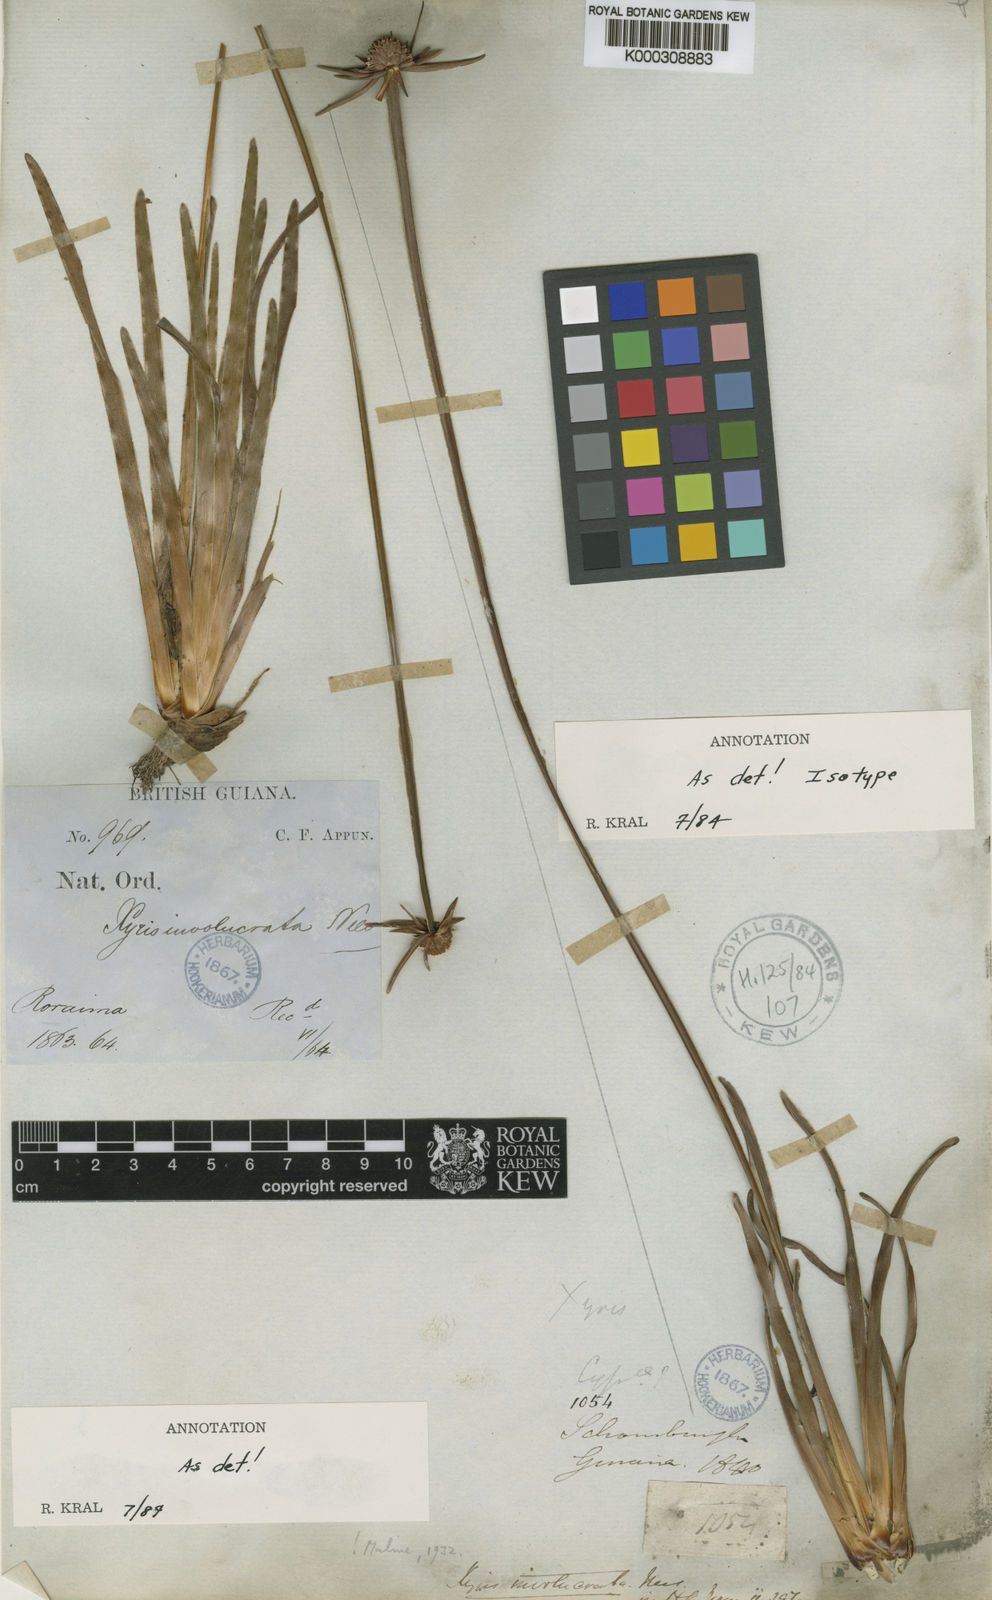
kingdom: Plantae
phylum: Tracheophyta
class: Liliopsida
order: Poales
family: Xyridaceae
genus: Xyris
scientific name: Xyris involucrata
